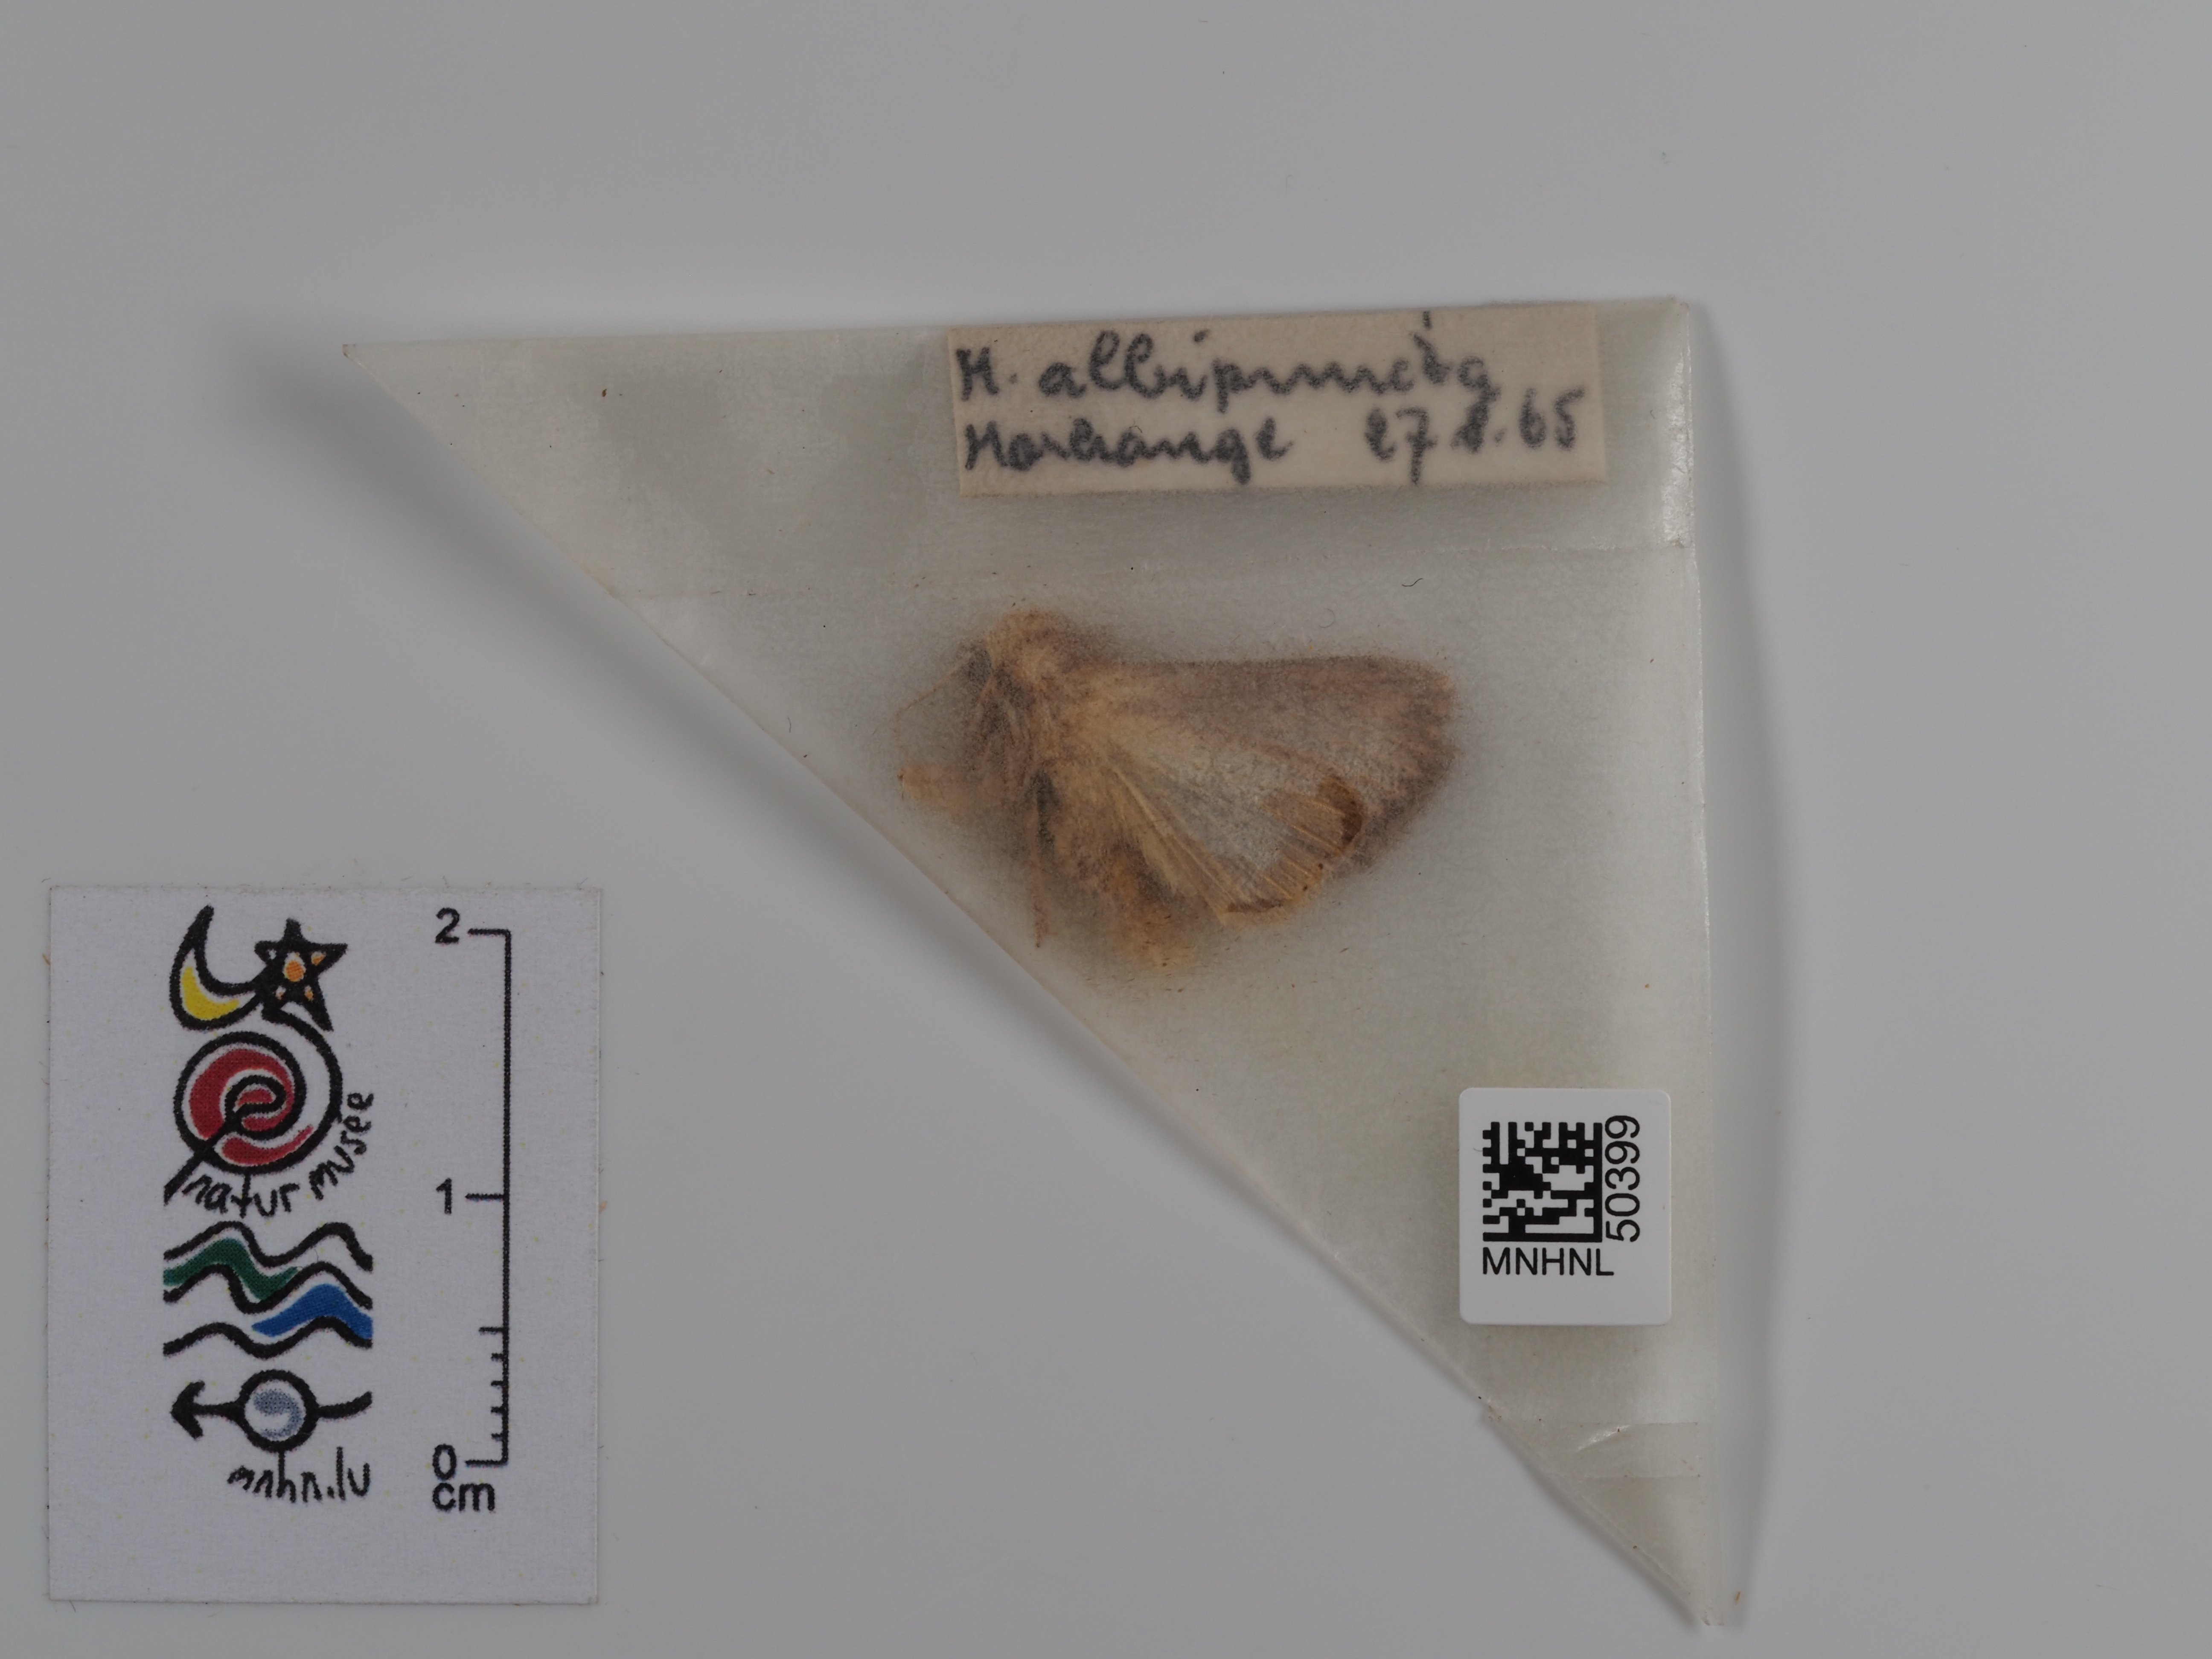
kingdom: Animalia
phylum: Arthropoda
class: Insecta
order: Lepidoptera
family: Noctuidae
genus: Mythimna
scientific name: Mythimna albipuncta
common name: White-point
